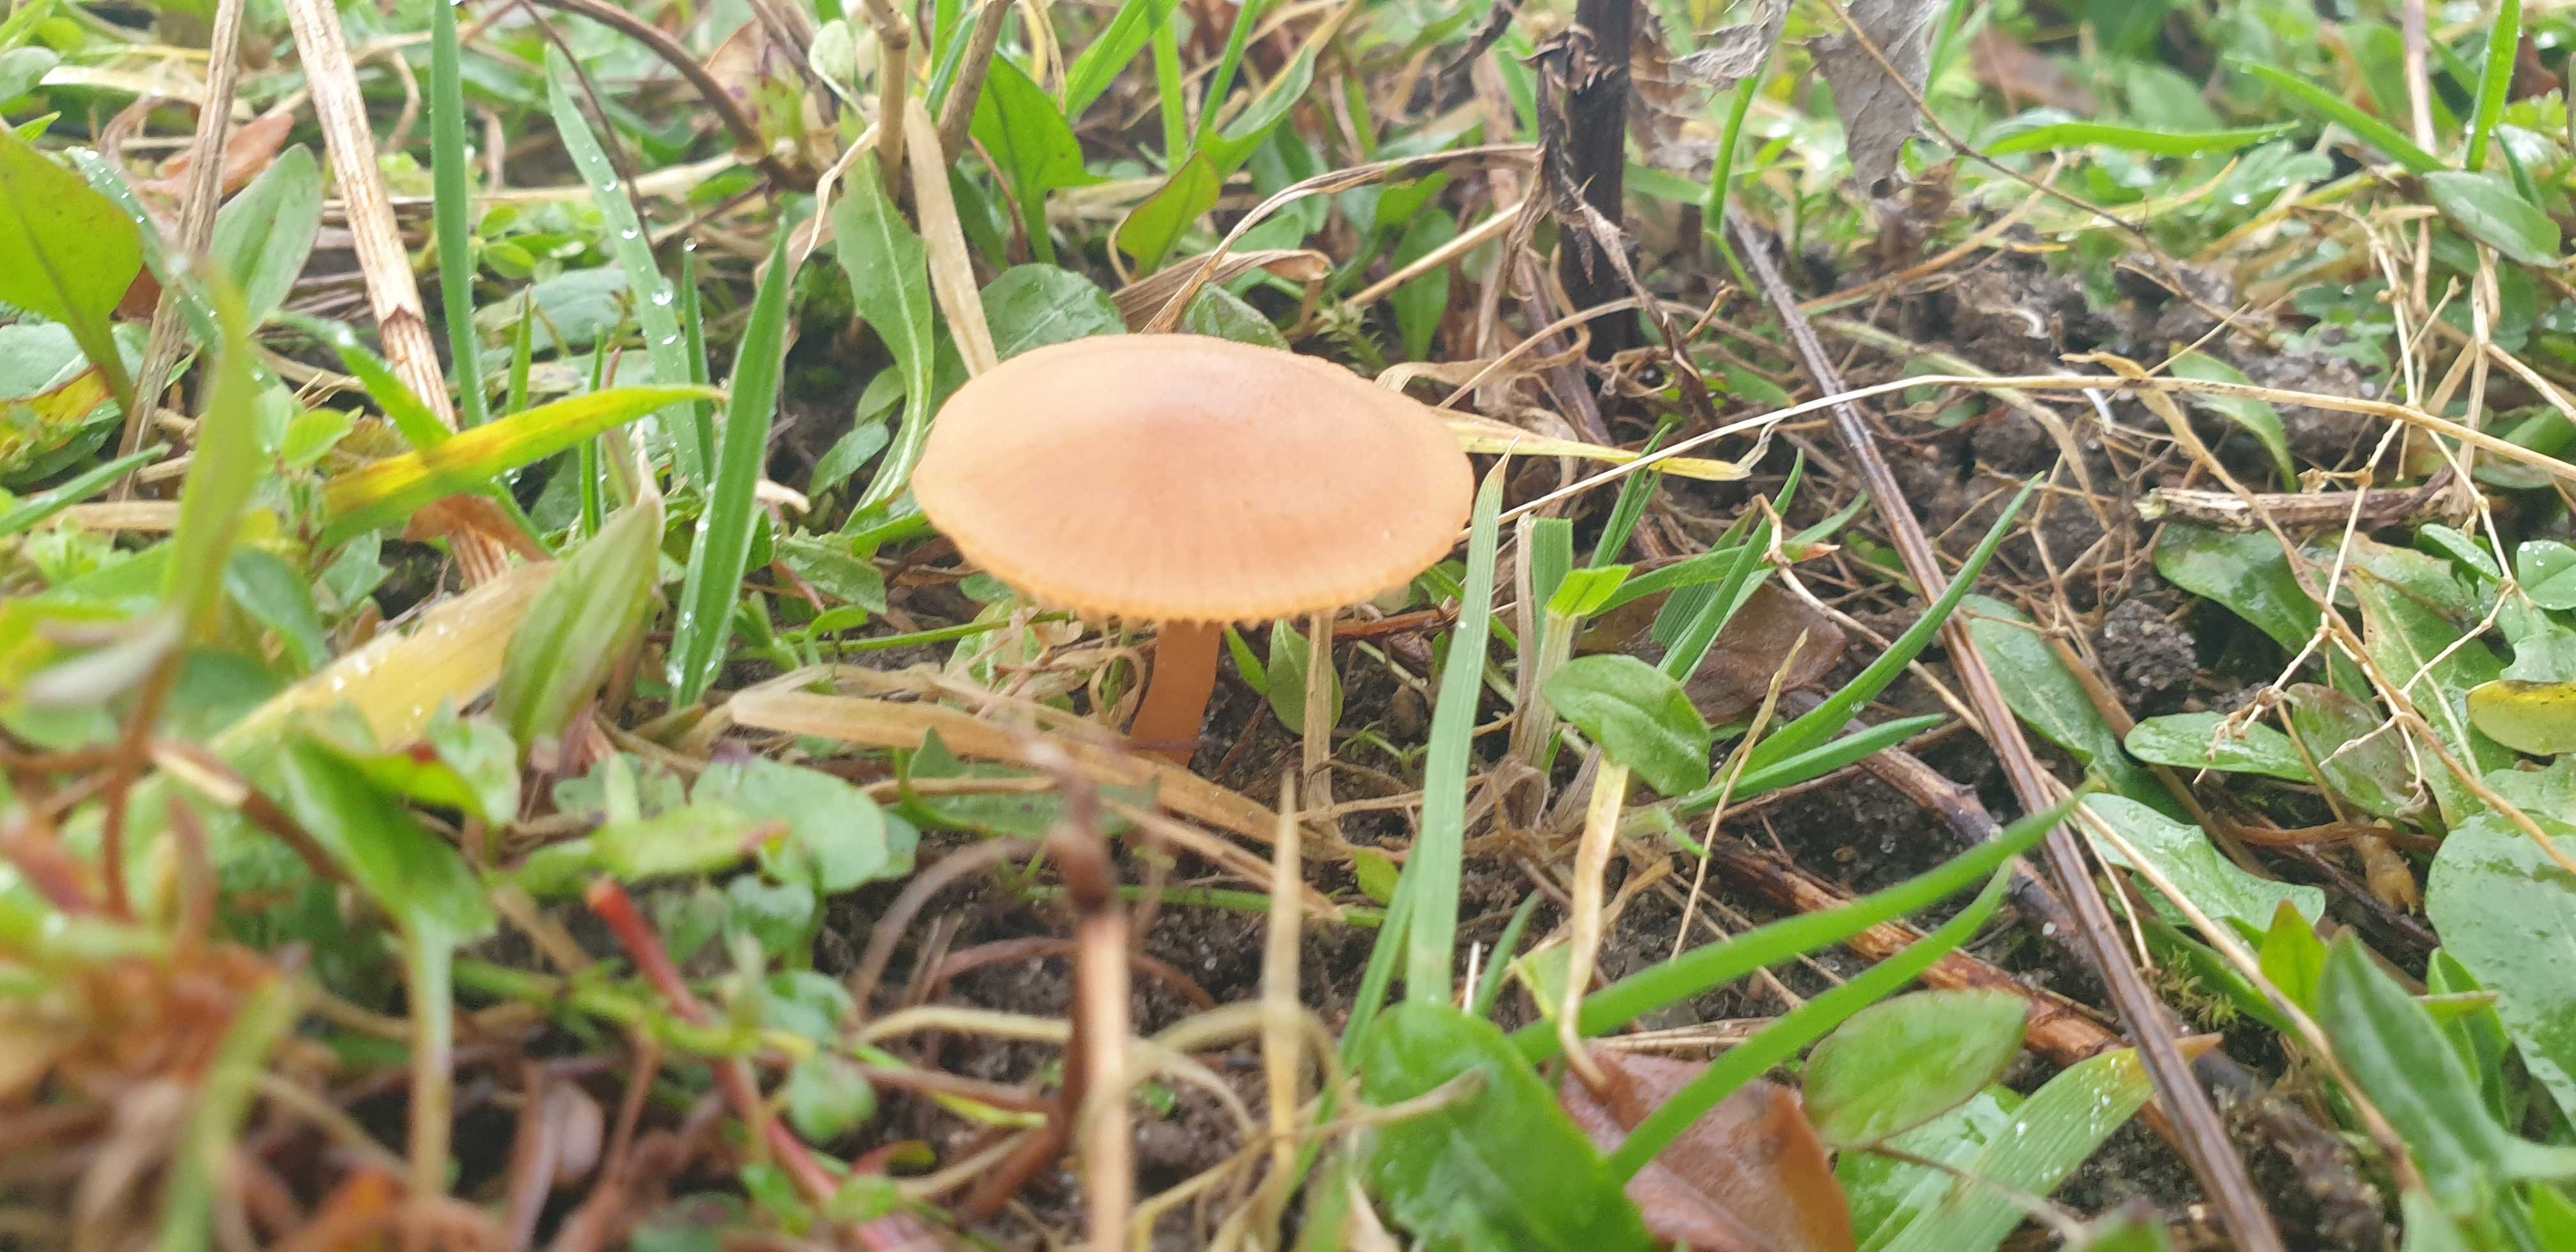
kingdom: Fungi
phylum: Basidiomycota
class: Agaricomycetes
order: Agaricales
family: Tubariaceae
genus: Tubaria
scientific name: Tubaria furfuracea
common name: kliddet fnughat
